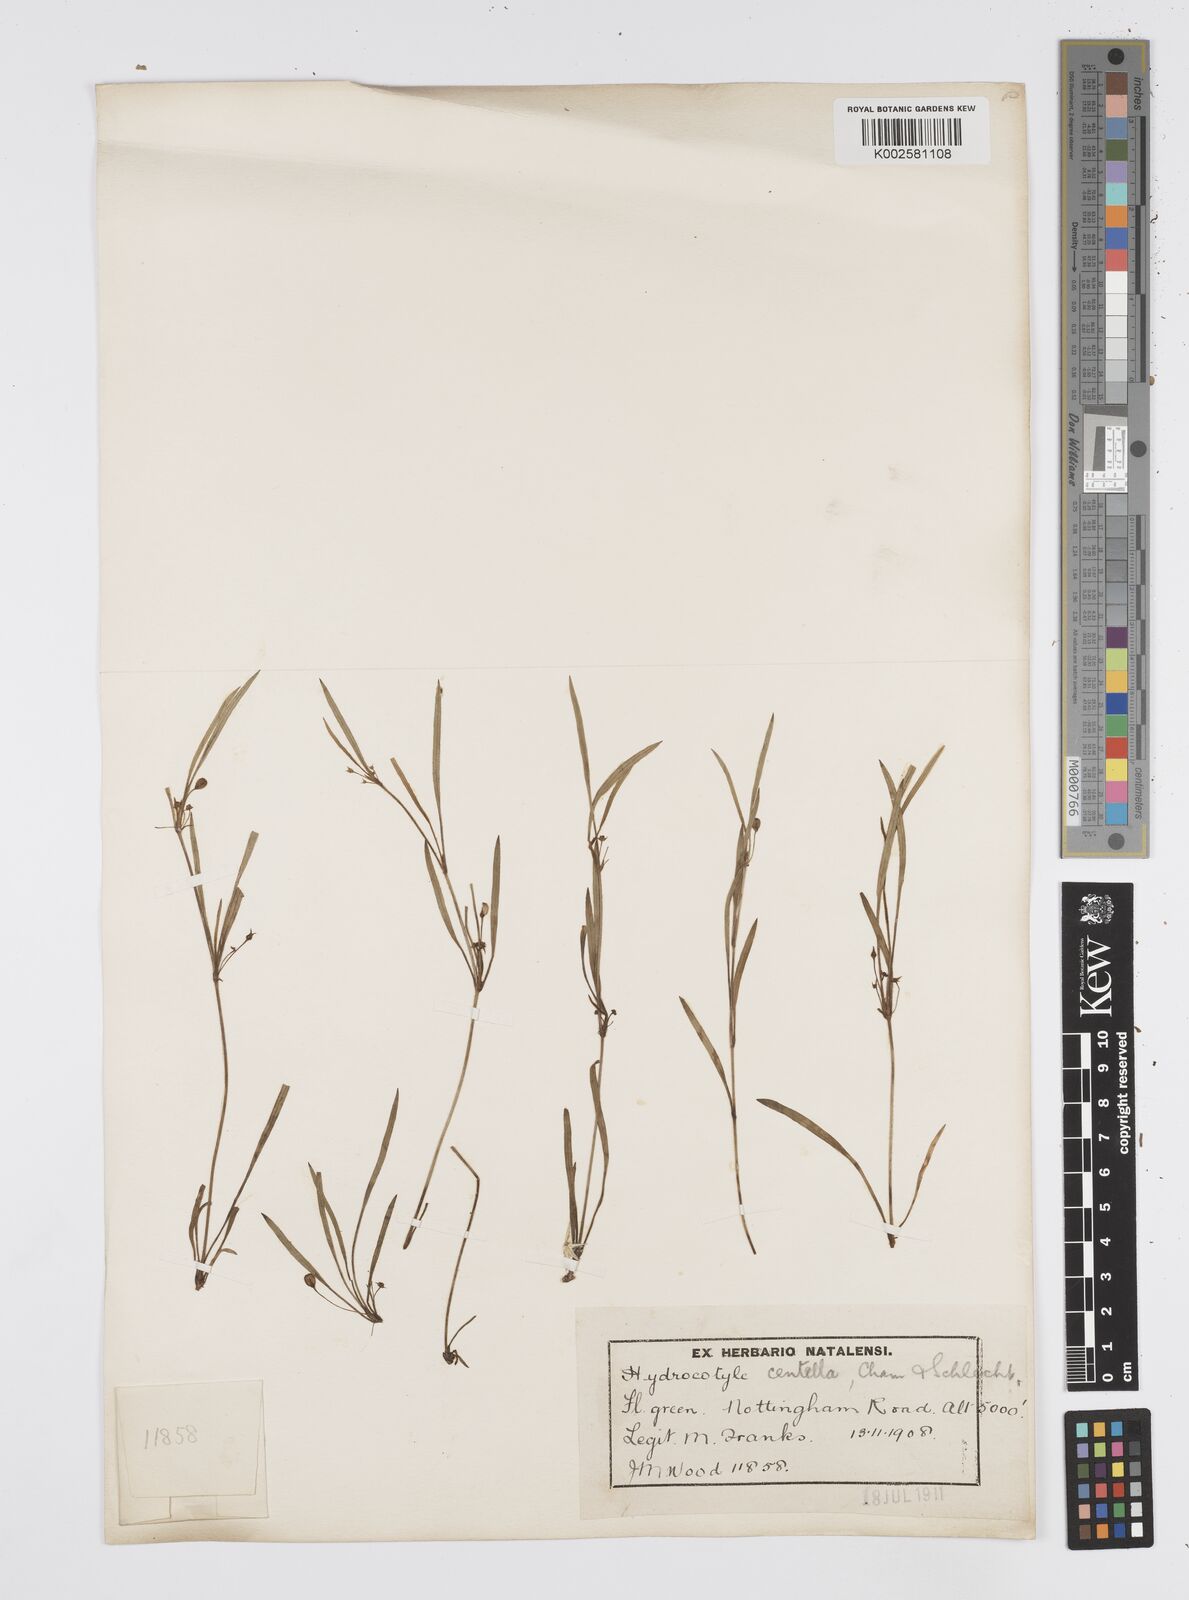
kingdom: Plantae
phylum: Tracheophyta
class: Magnoliopsida
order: Apiales
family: Apiaceae
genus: Centella
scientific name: Centella glabrata
